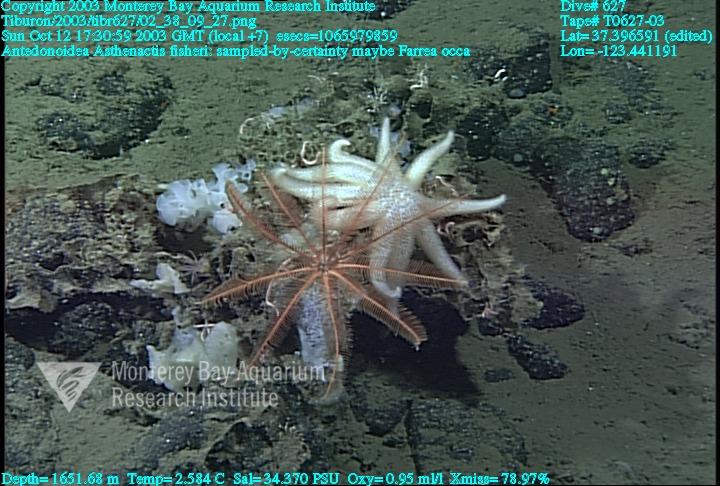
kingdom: Animalia
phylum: Porifera
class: Hexactinellida
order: Sceptrulophora
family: Farreidae
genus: Farrea
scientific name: Farrea occa
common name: Reversed glass sponge
